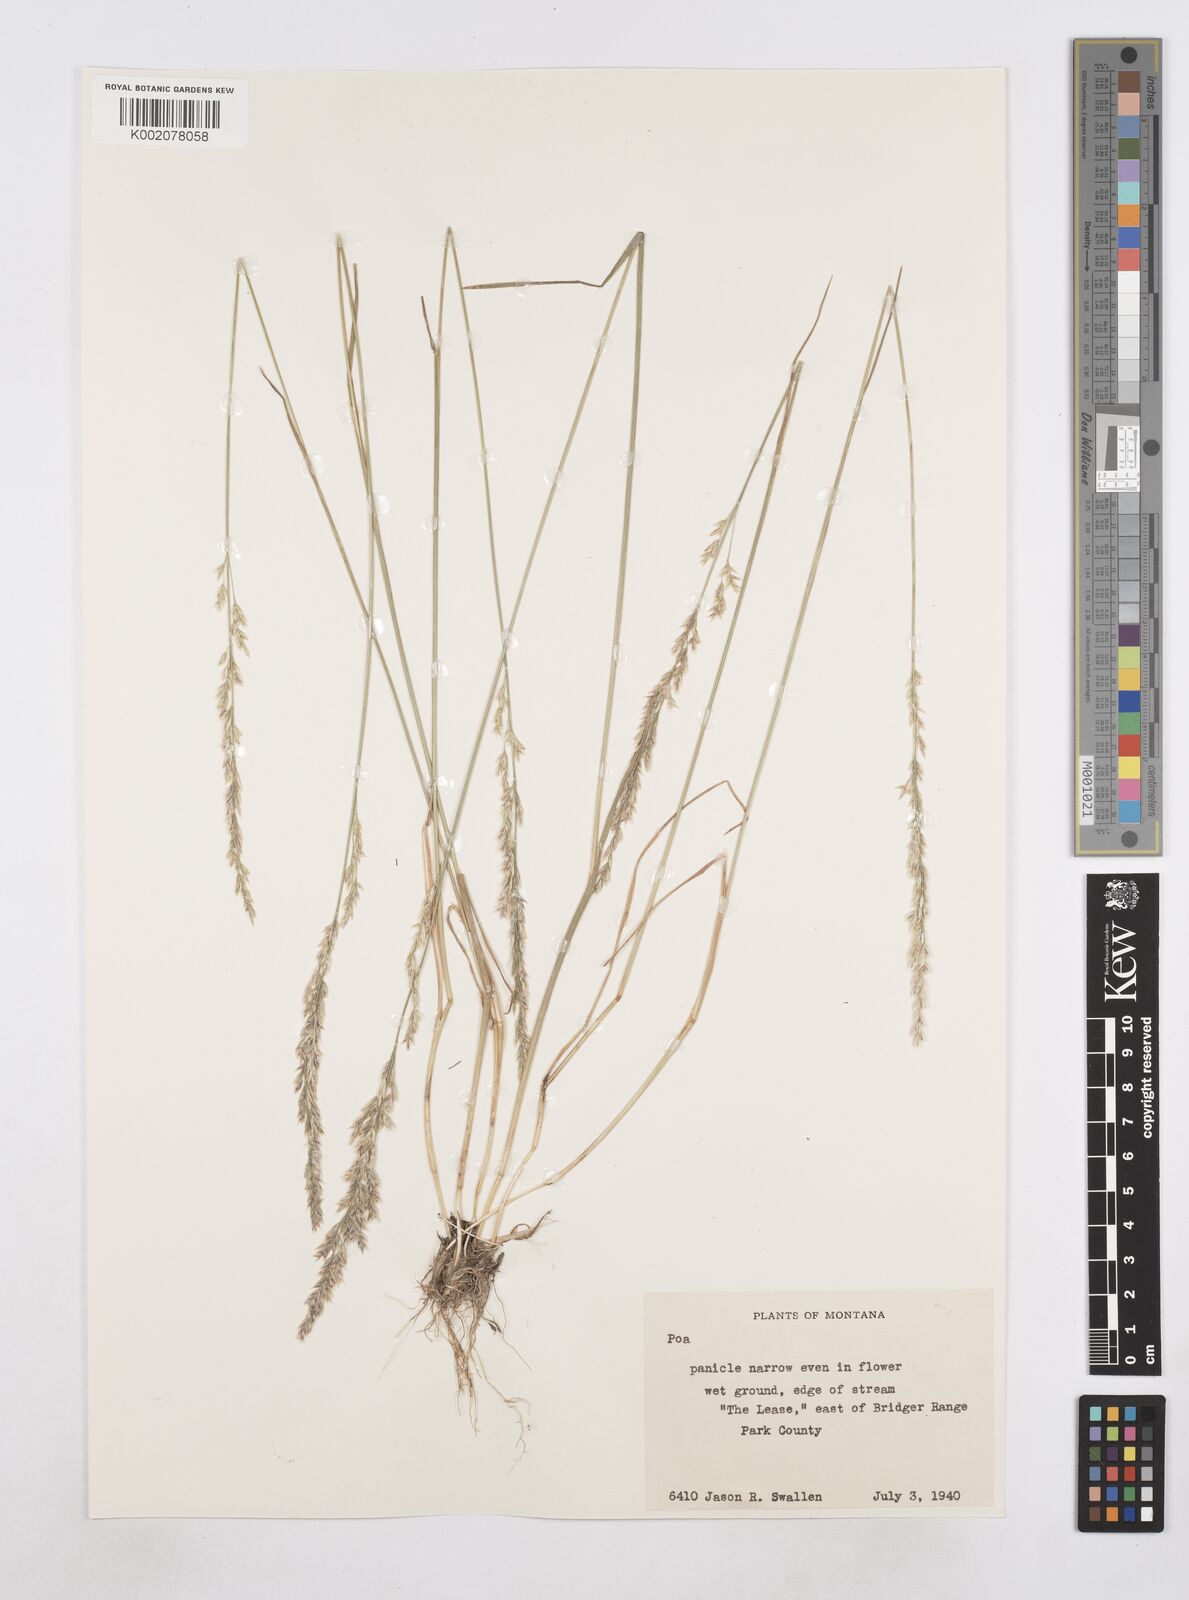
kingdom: Plantae
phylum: Tracheophyta
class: Liliopsida
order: Poales
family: Poaceae
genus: Poa
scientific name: Poa
